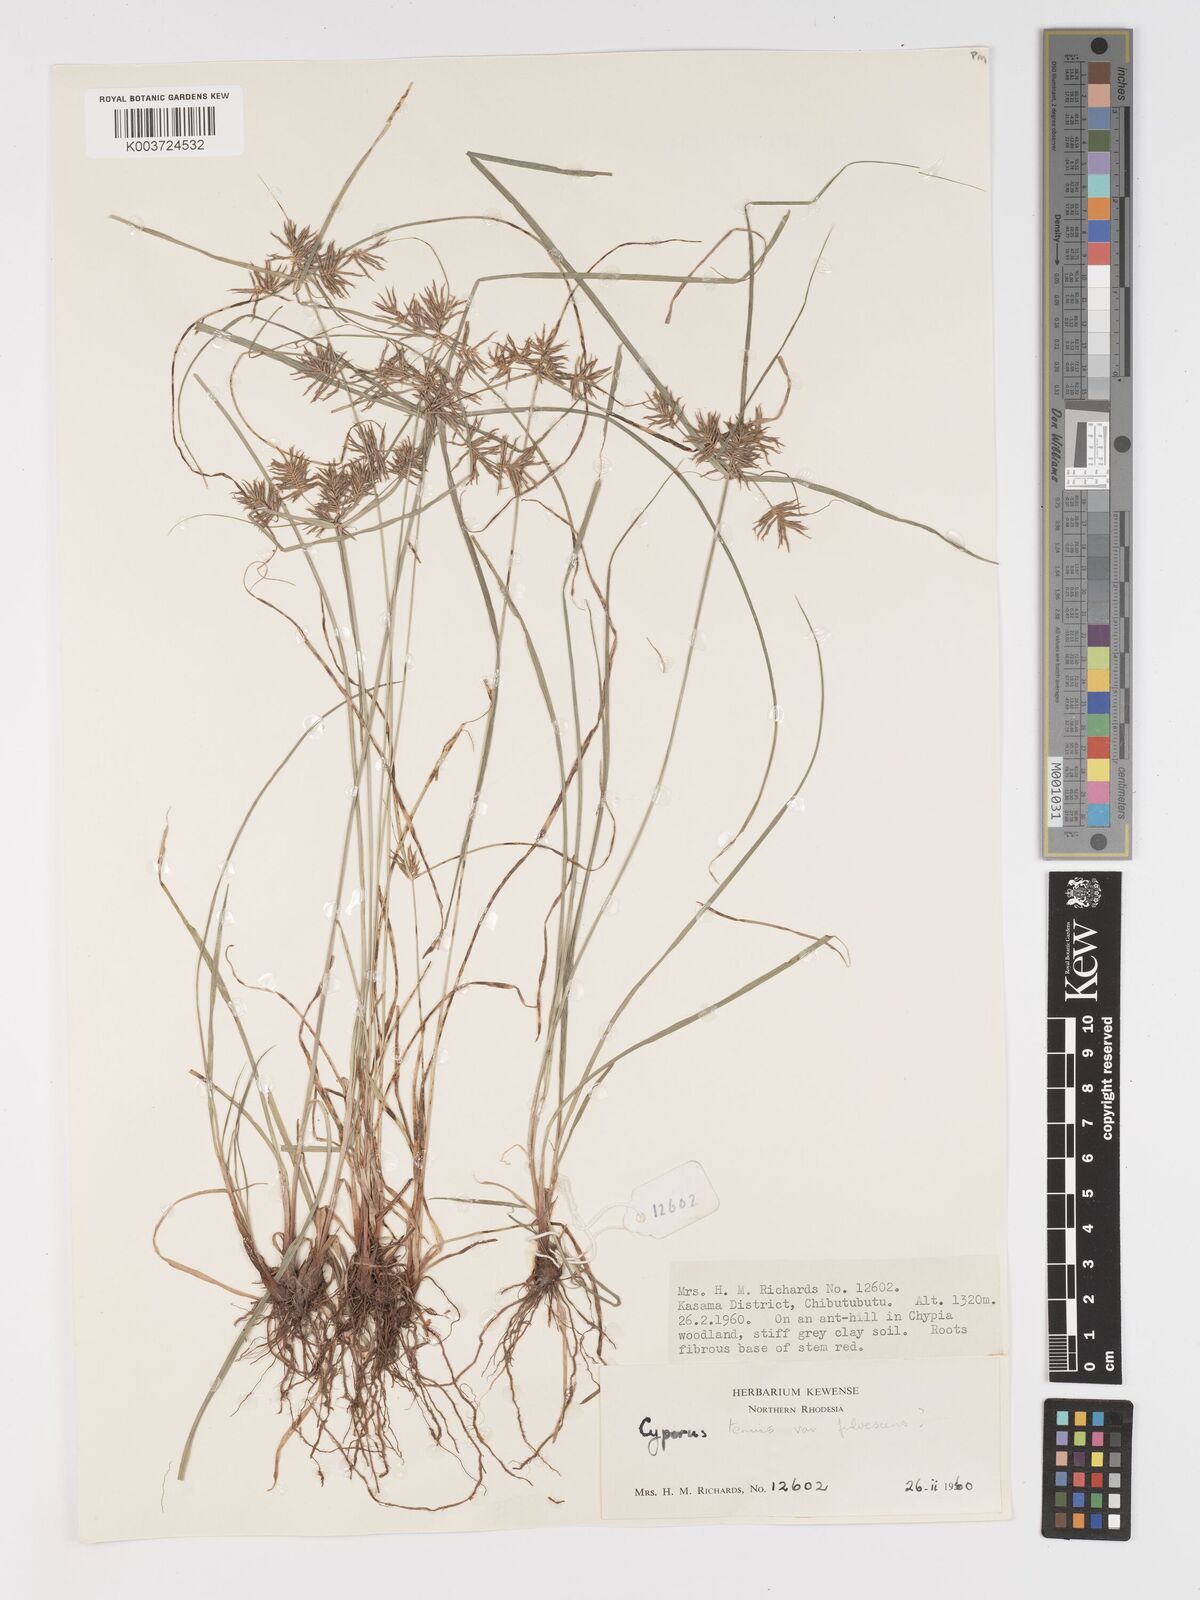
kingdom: Plantae
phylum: Tracheophyta
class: Liliopsida
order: Poales
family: Cyperaceae
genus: Cyperus
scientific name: Cyperus
